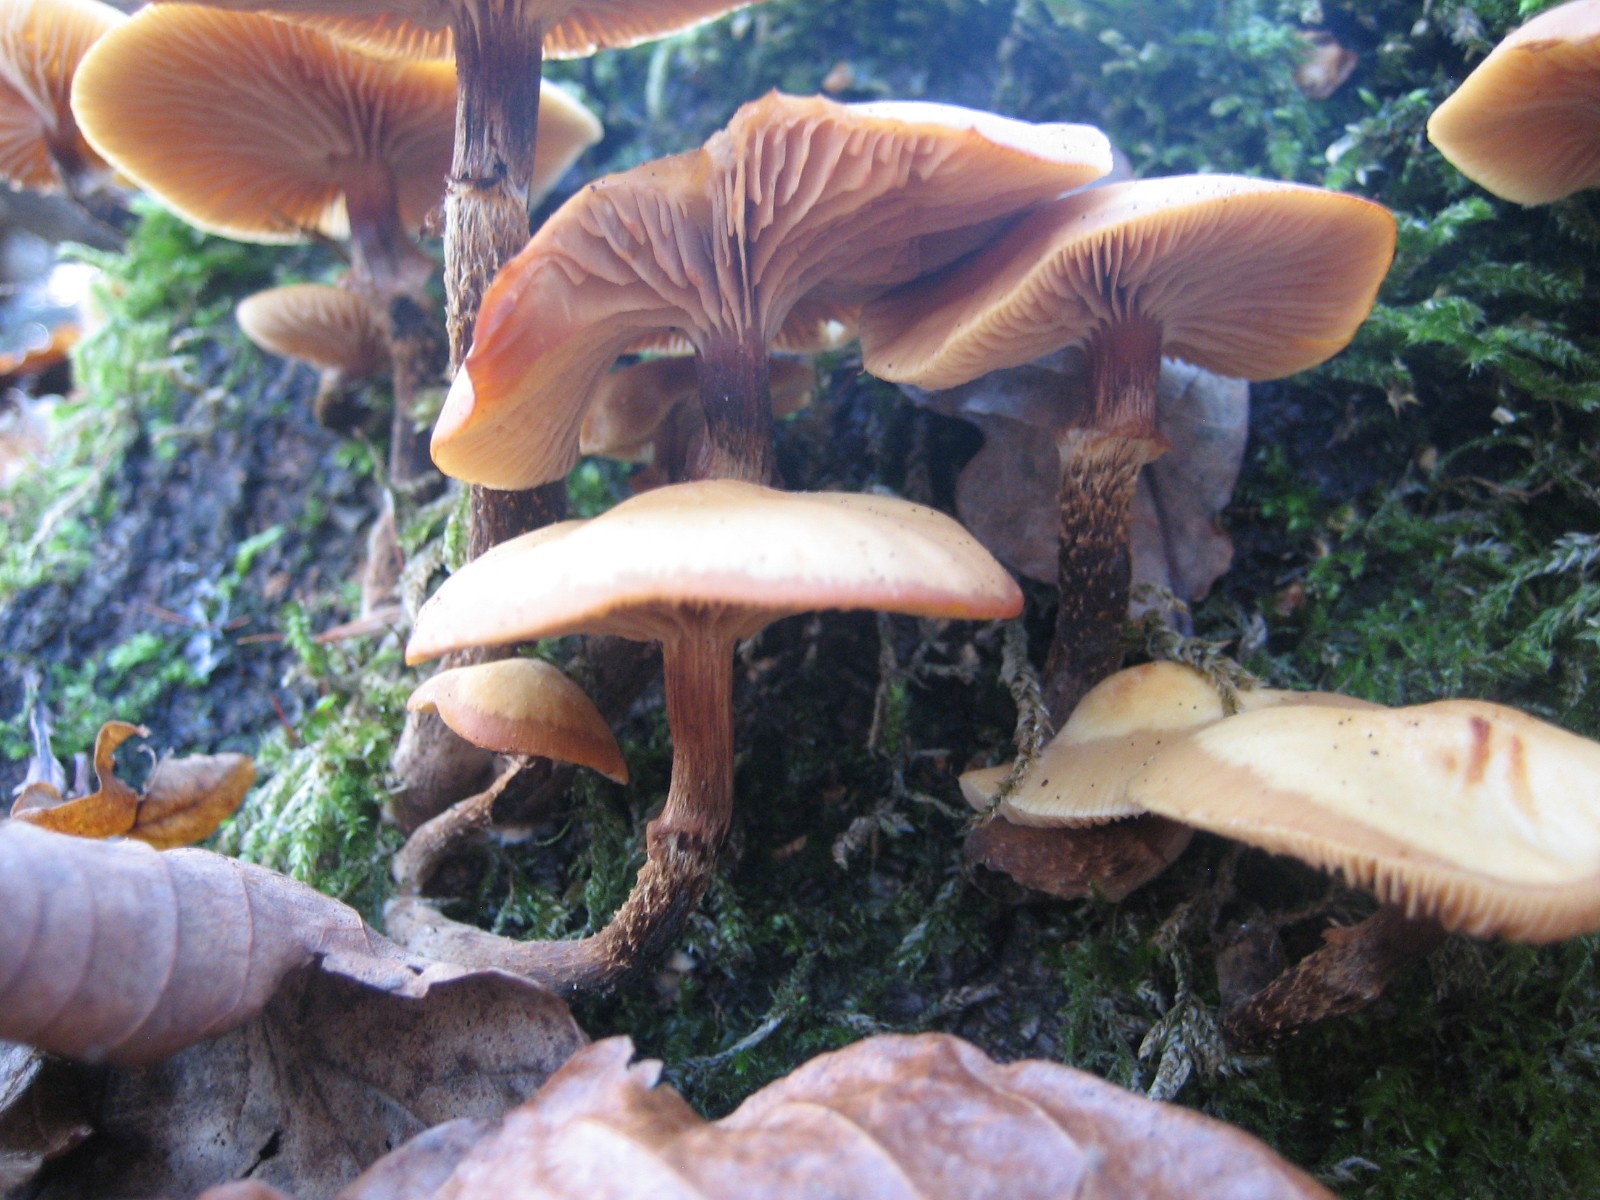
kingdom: Fungi
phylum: Basidiomycota
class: Agaricomycetes
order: Agaricales
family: Strophariaceae
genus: Kuehneromyces
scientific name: Kuehneromyces mutabilis
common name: foranderlig skælhat
